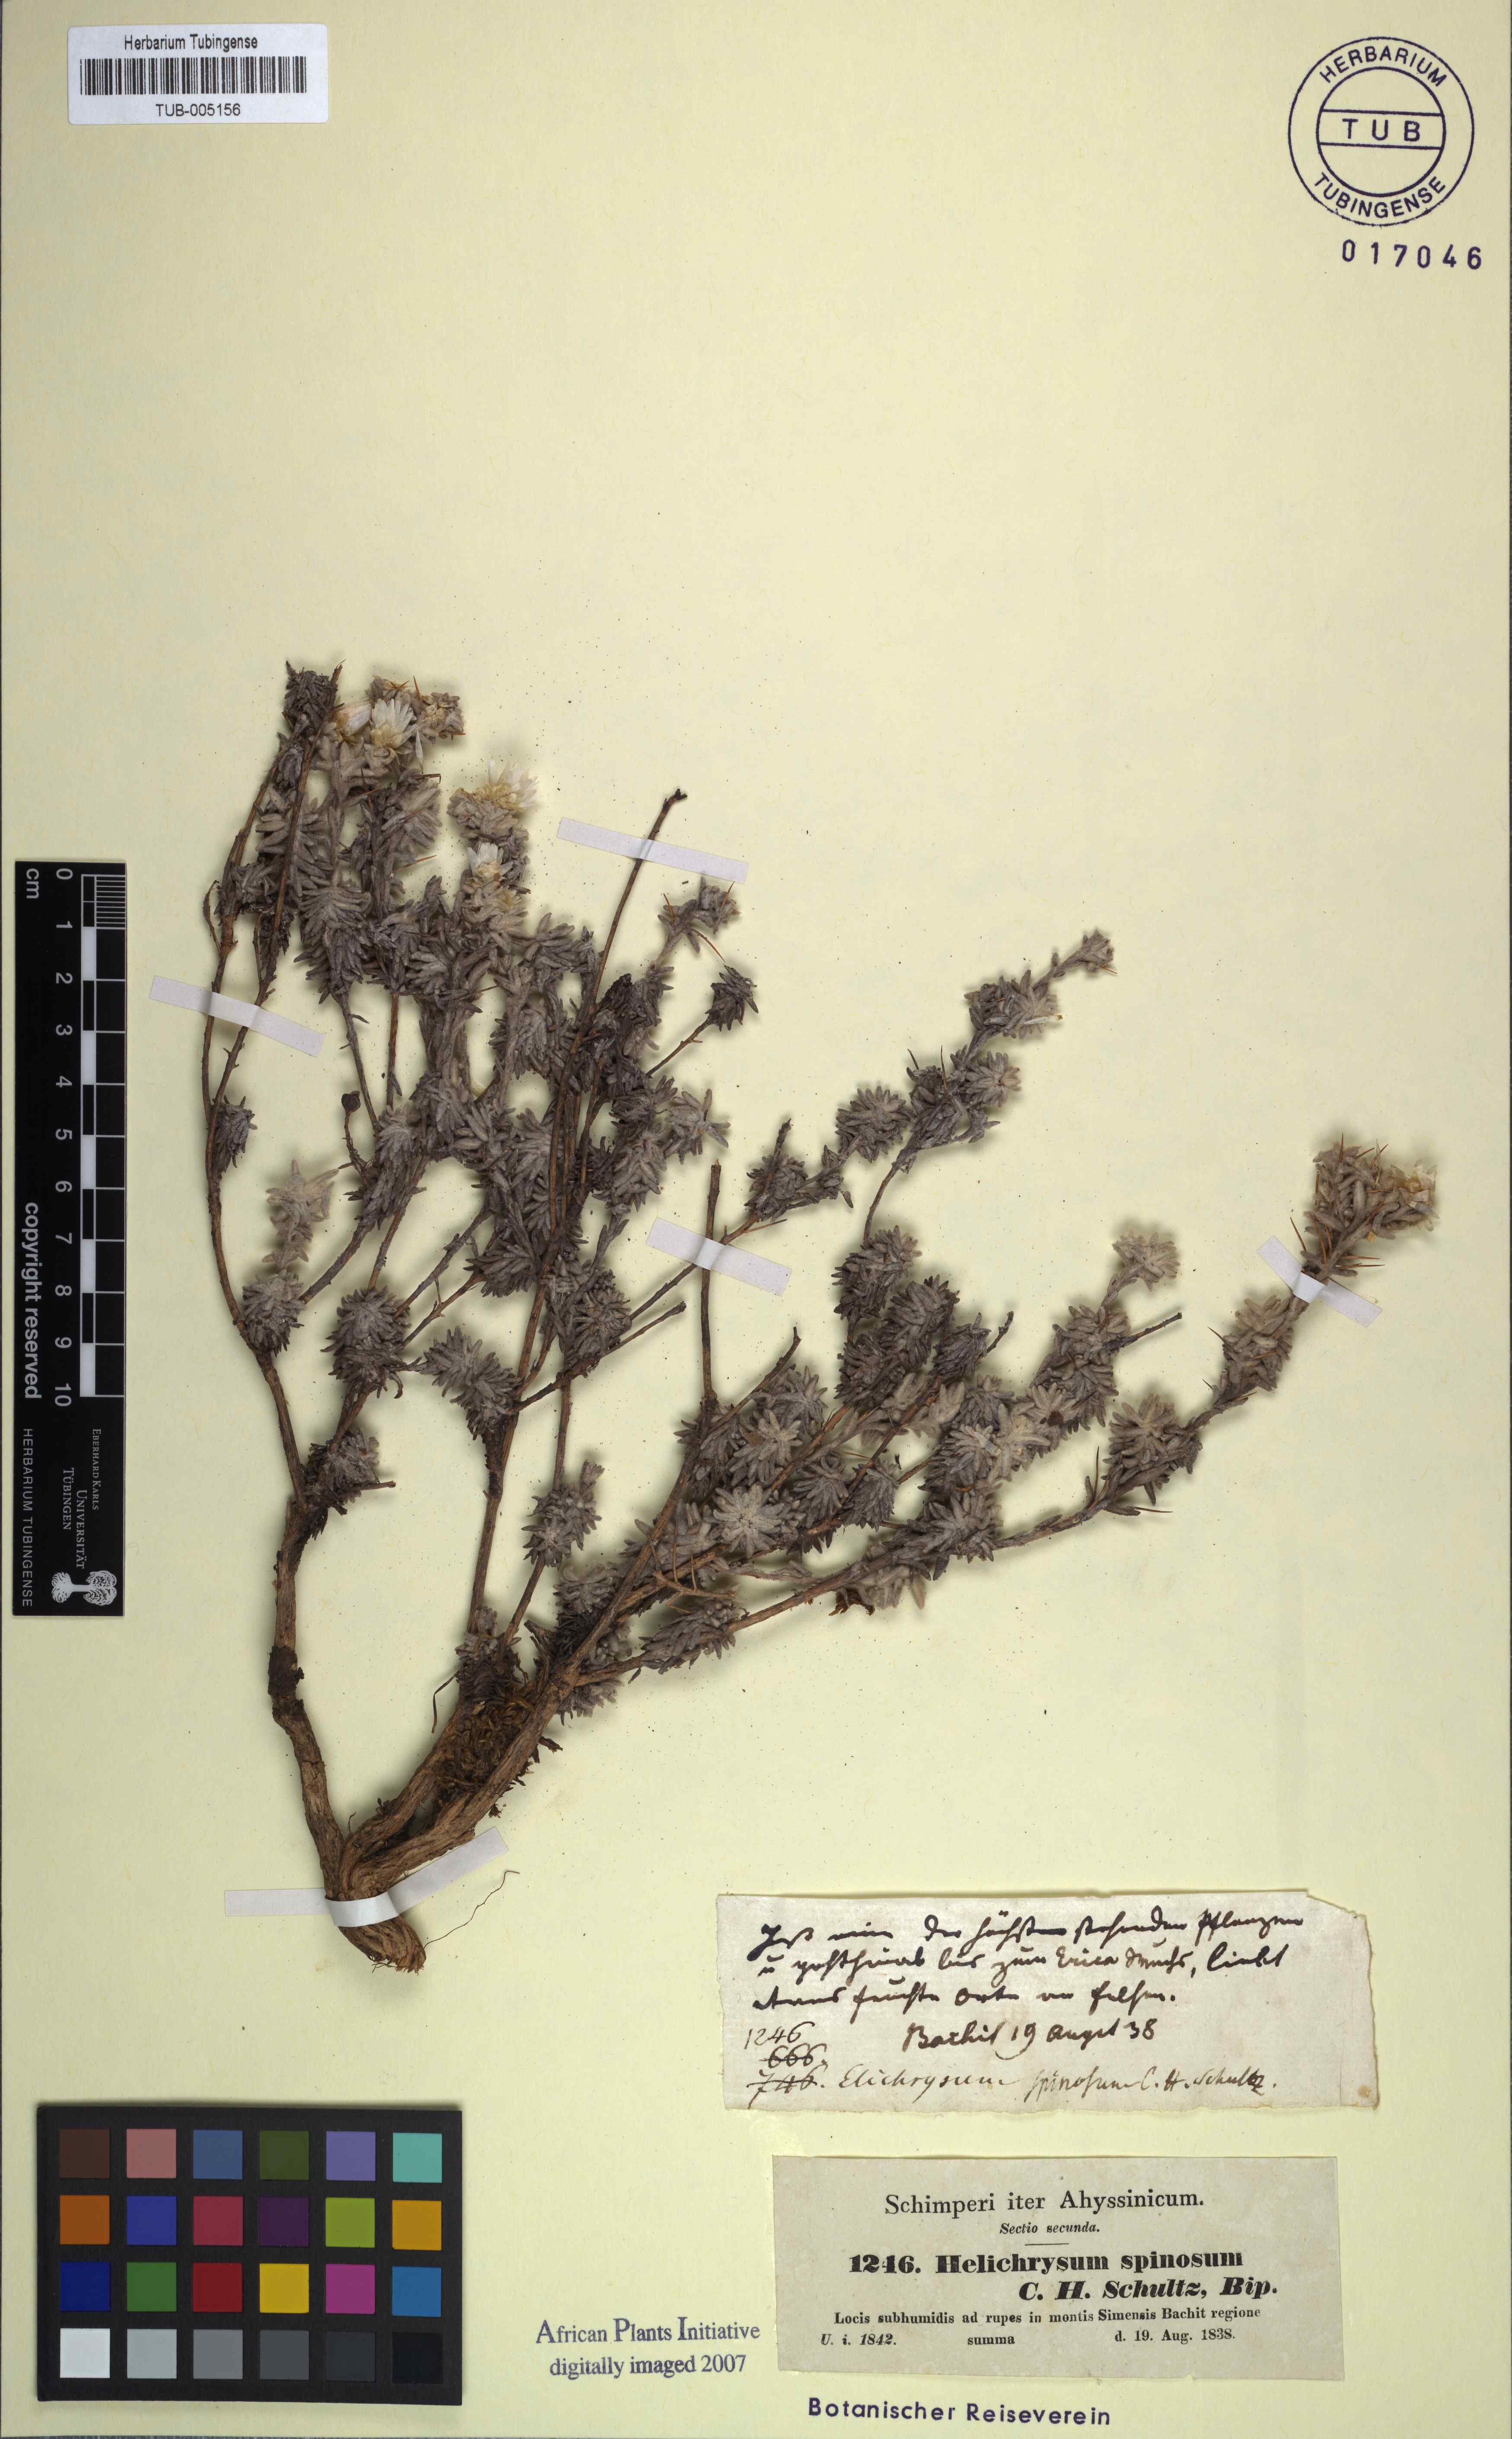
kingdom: Plantae
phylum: Tracheophyta
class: Magnoliopsida
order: Asterales
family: Asteraceae
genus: Helichrysum
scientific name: Helichrysum citrispinum
